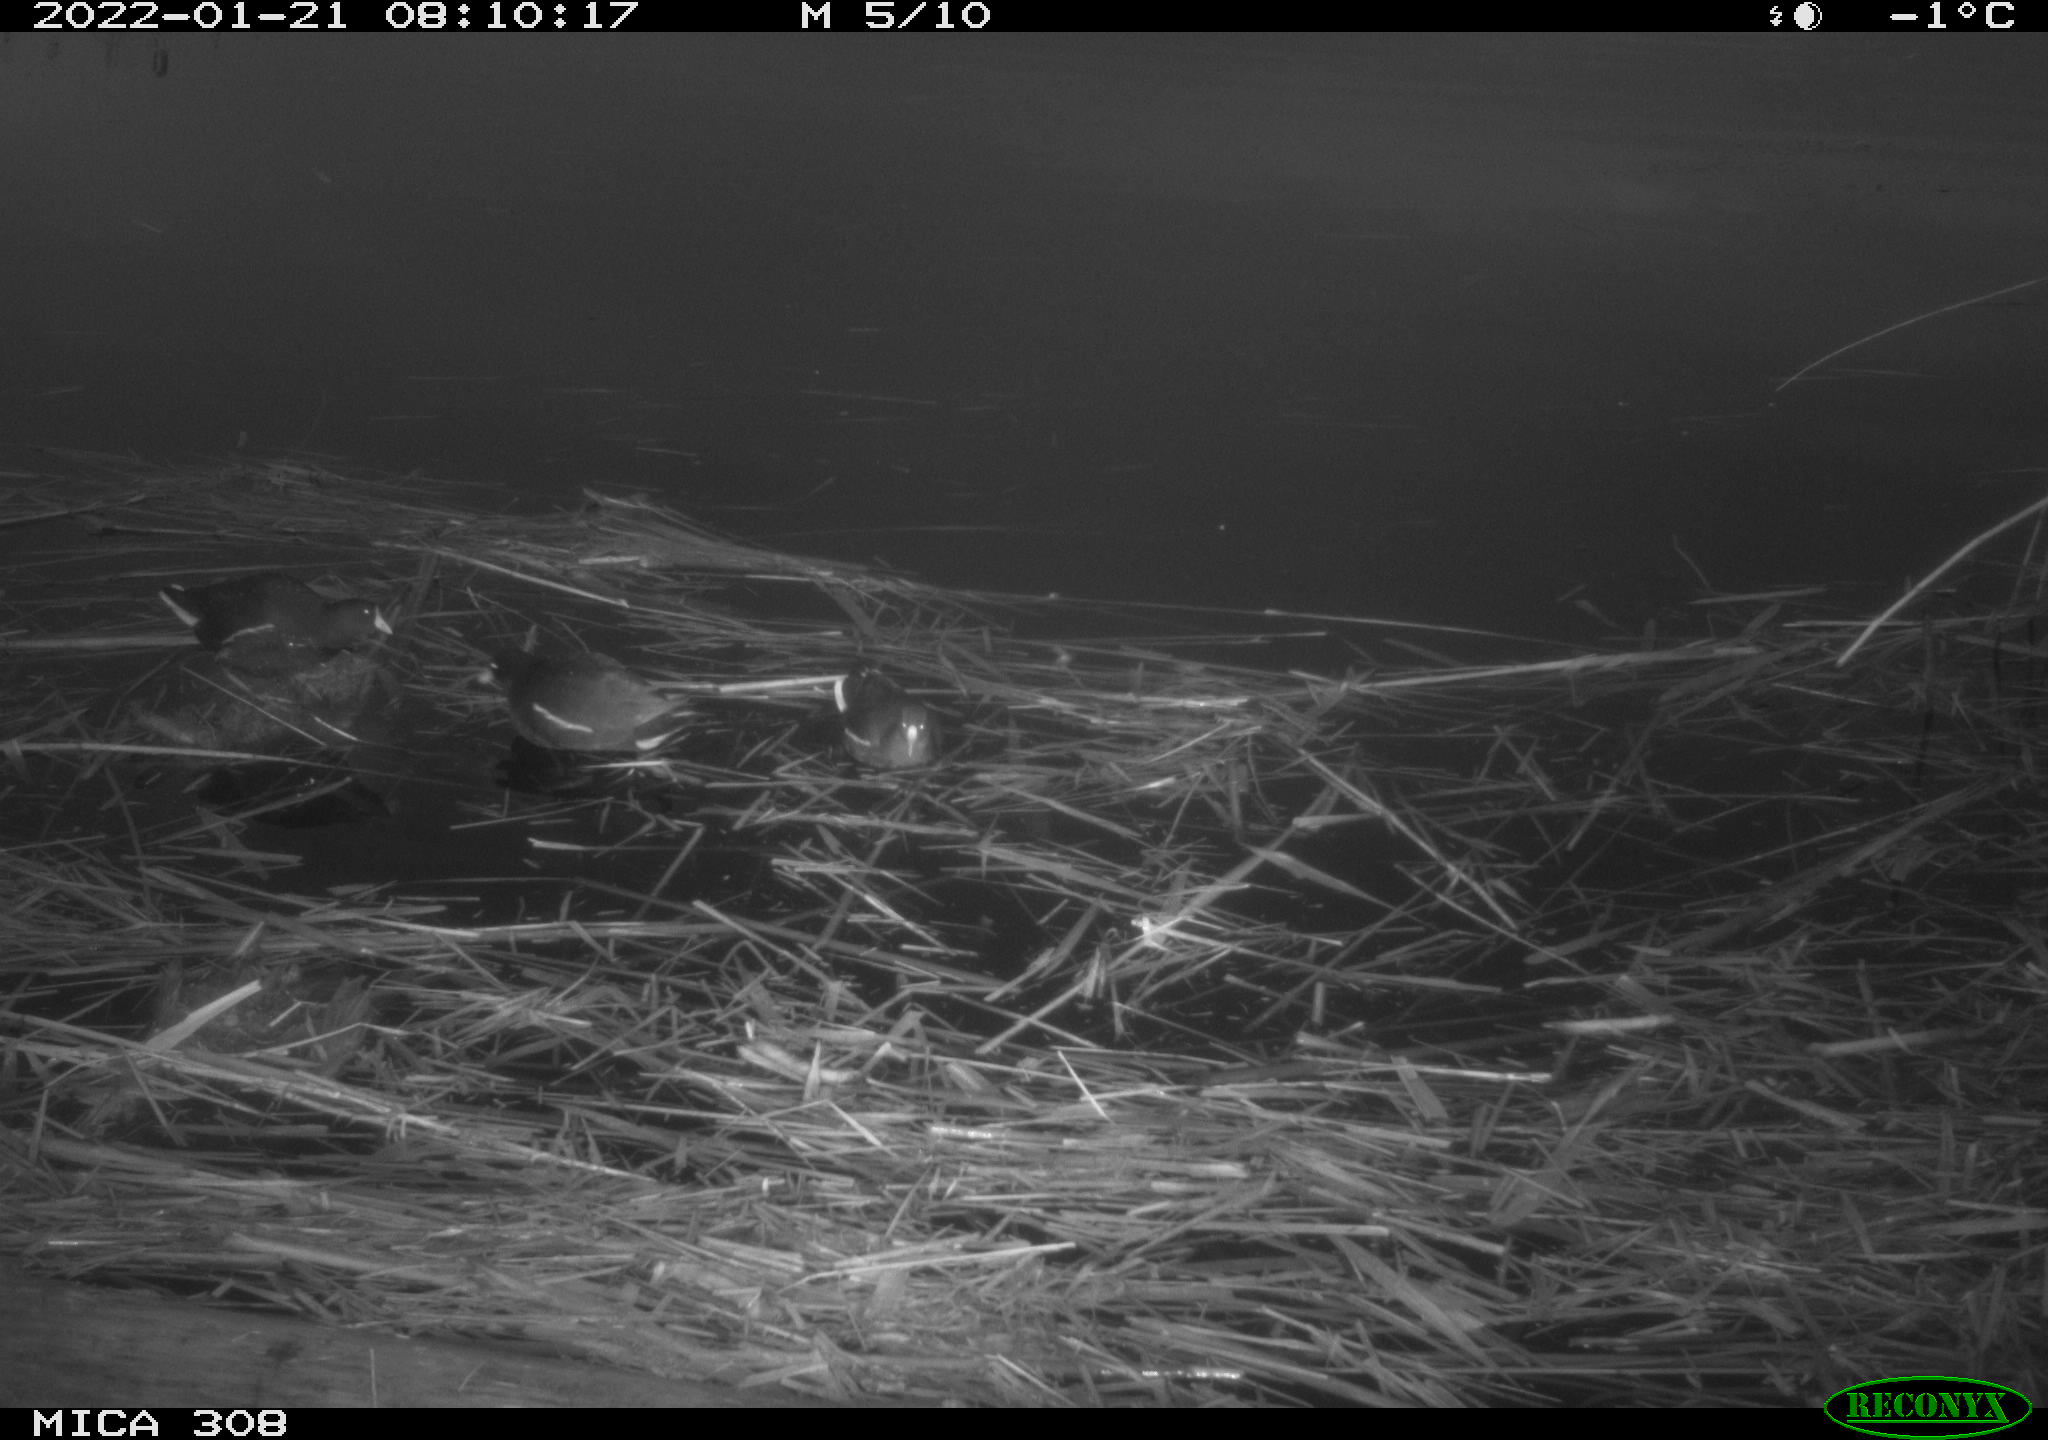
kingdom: Animalia
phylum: Chordata
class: Aves
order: Gruiformes
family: Rallidae
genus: Gallinula
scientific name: Gallinula chloropus
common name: Common moorhen
